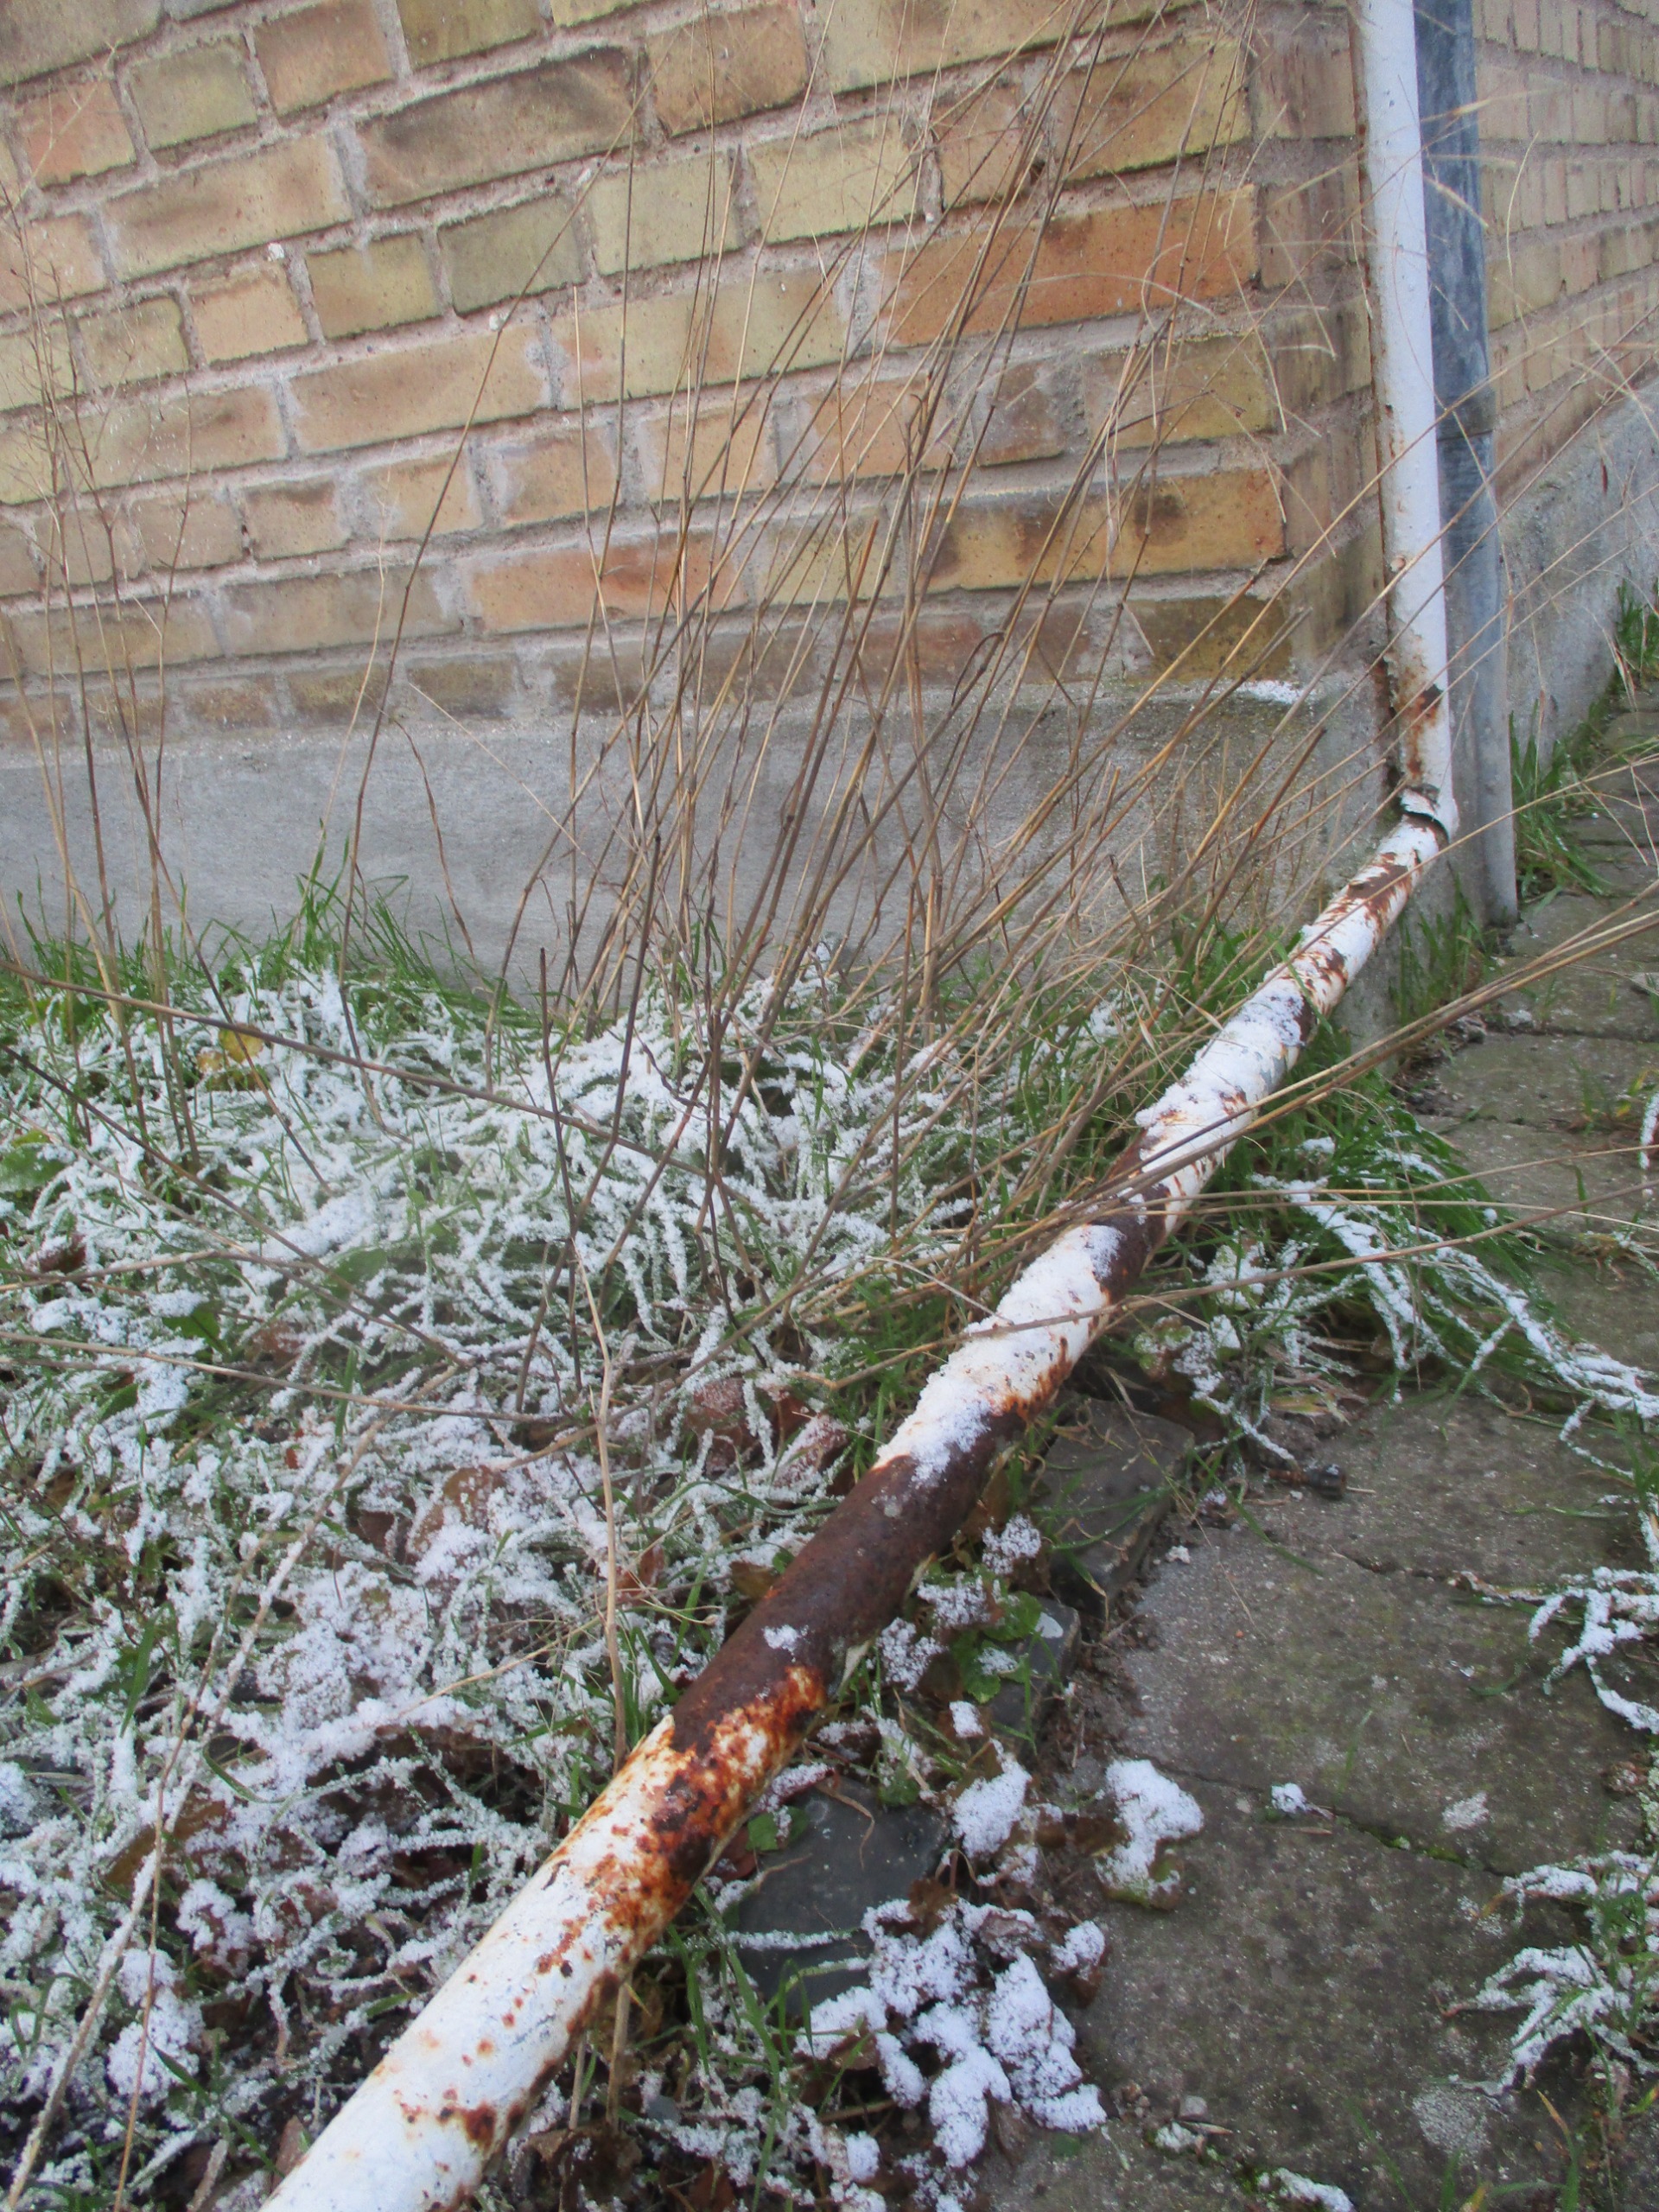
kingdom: Plantae
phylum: Tracheophyta
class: Liliopsida
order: Poales
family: Poaceae
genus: Bromus
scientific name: Bromus sterilis
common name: Gold hejre
